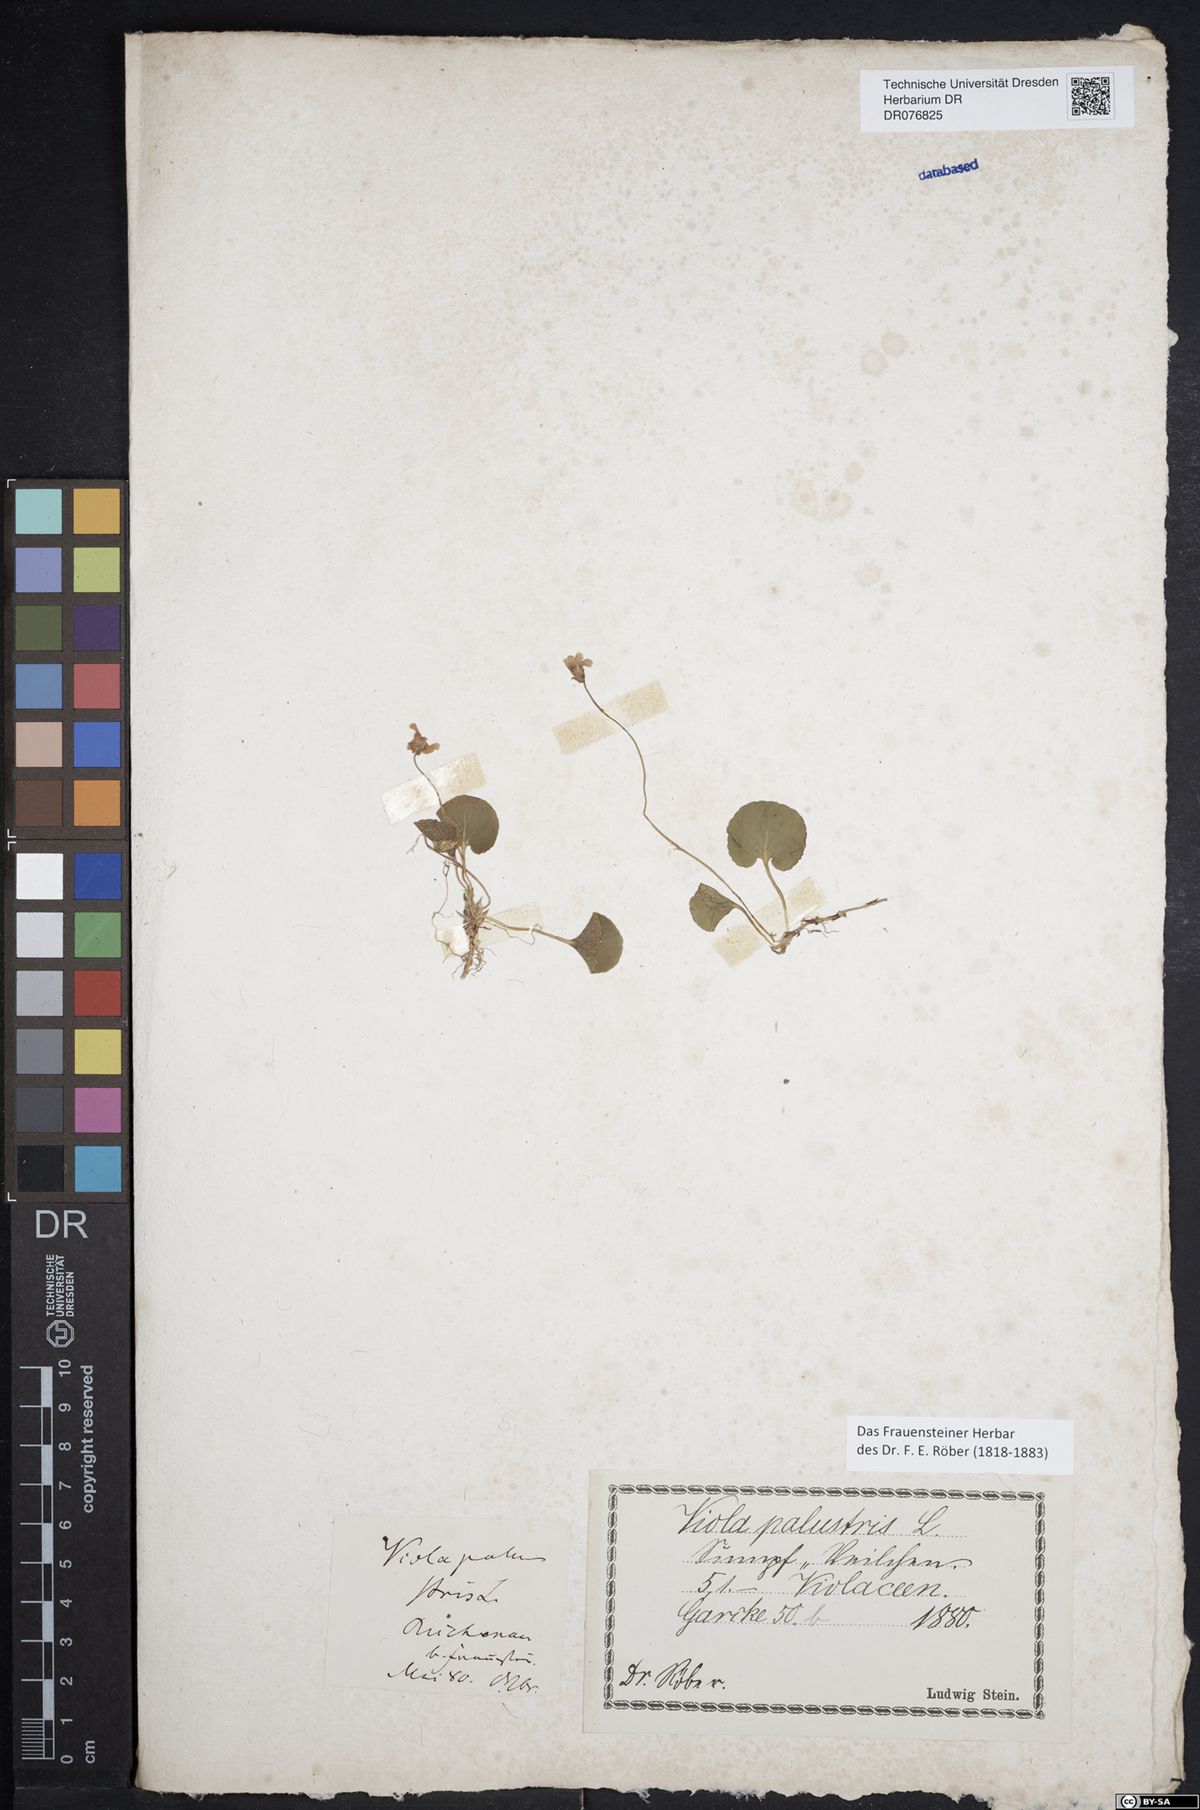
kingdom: Plantae
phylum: Tracheophyta
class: Magnoliopsida
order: Malpighiales
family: Violaceae
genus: Viola
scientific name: Viola palustris
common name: Marsh violet
